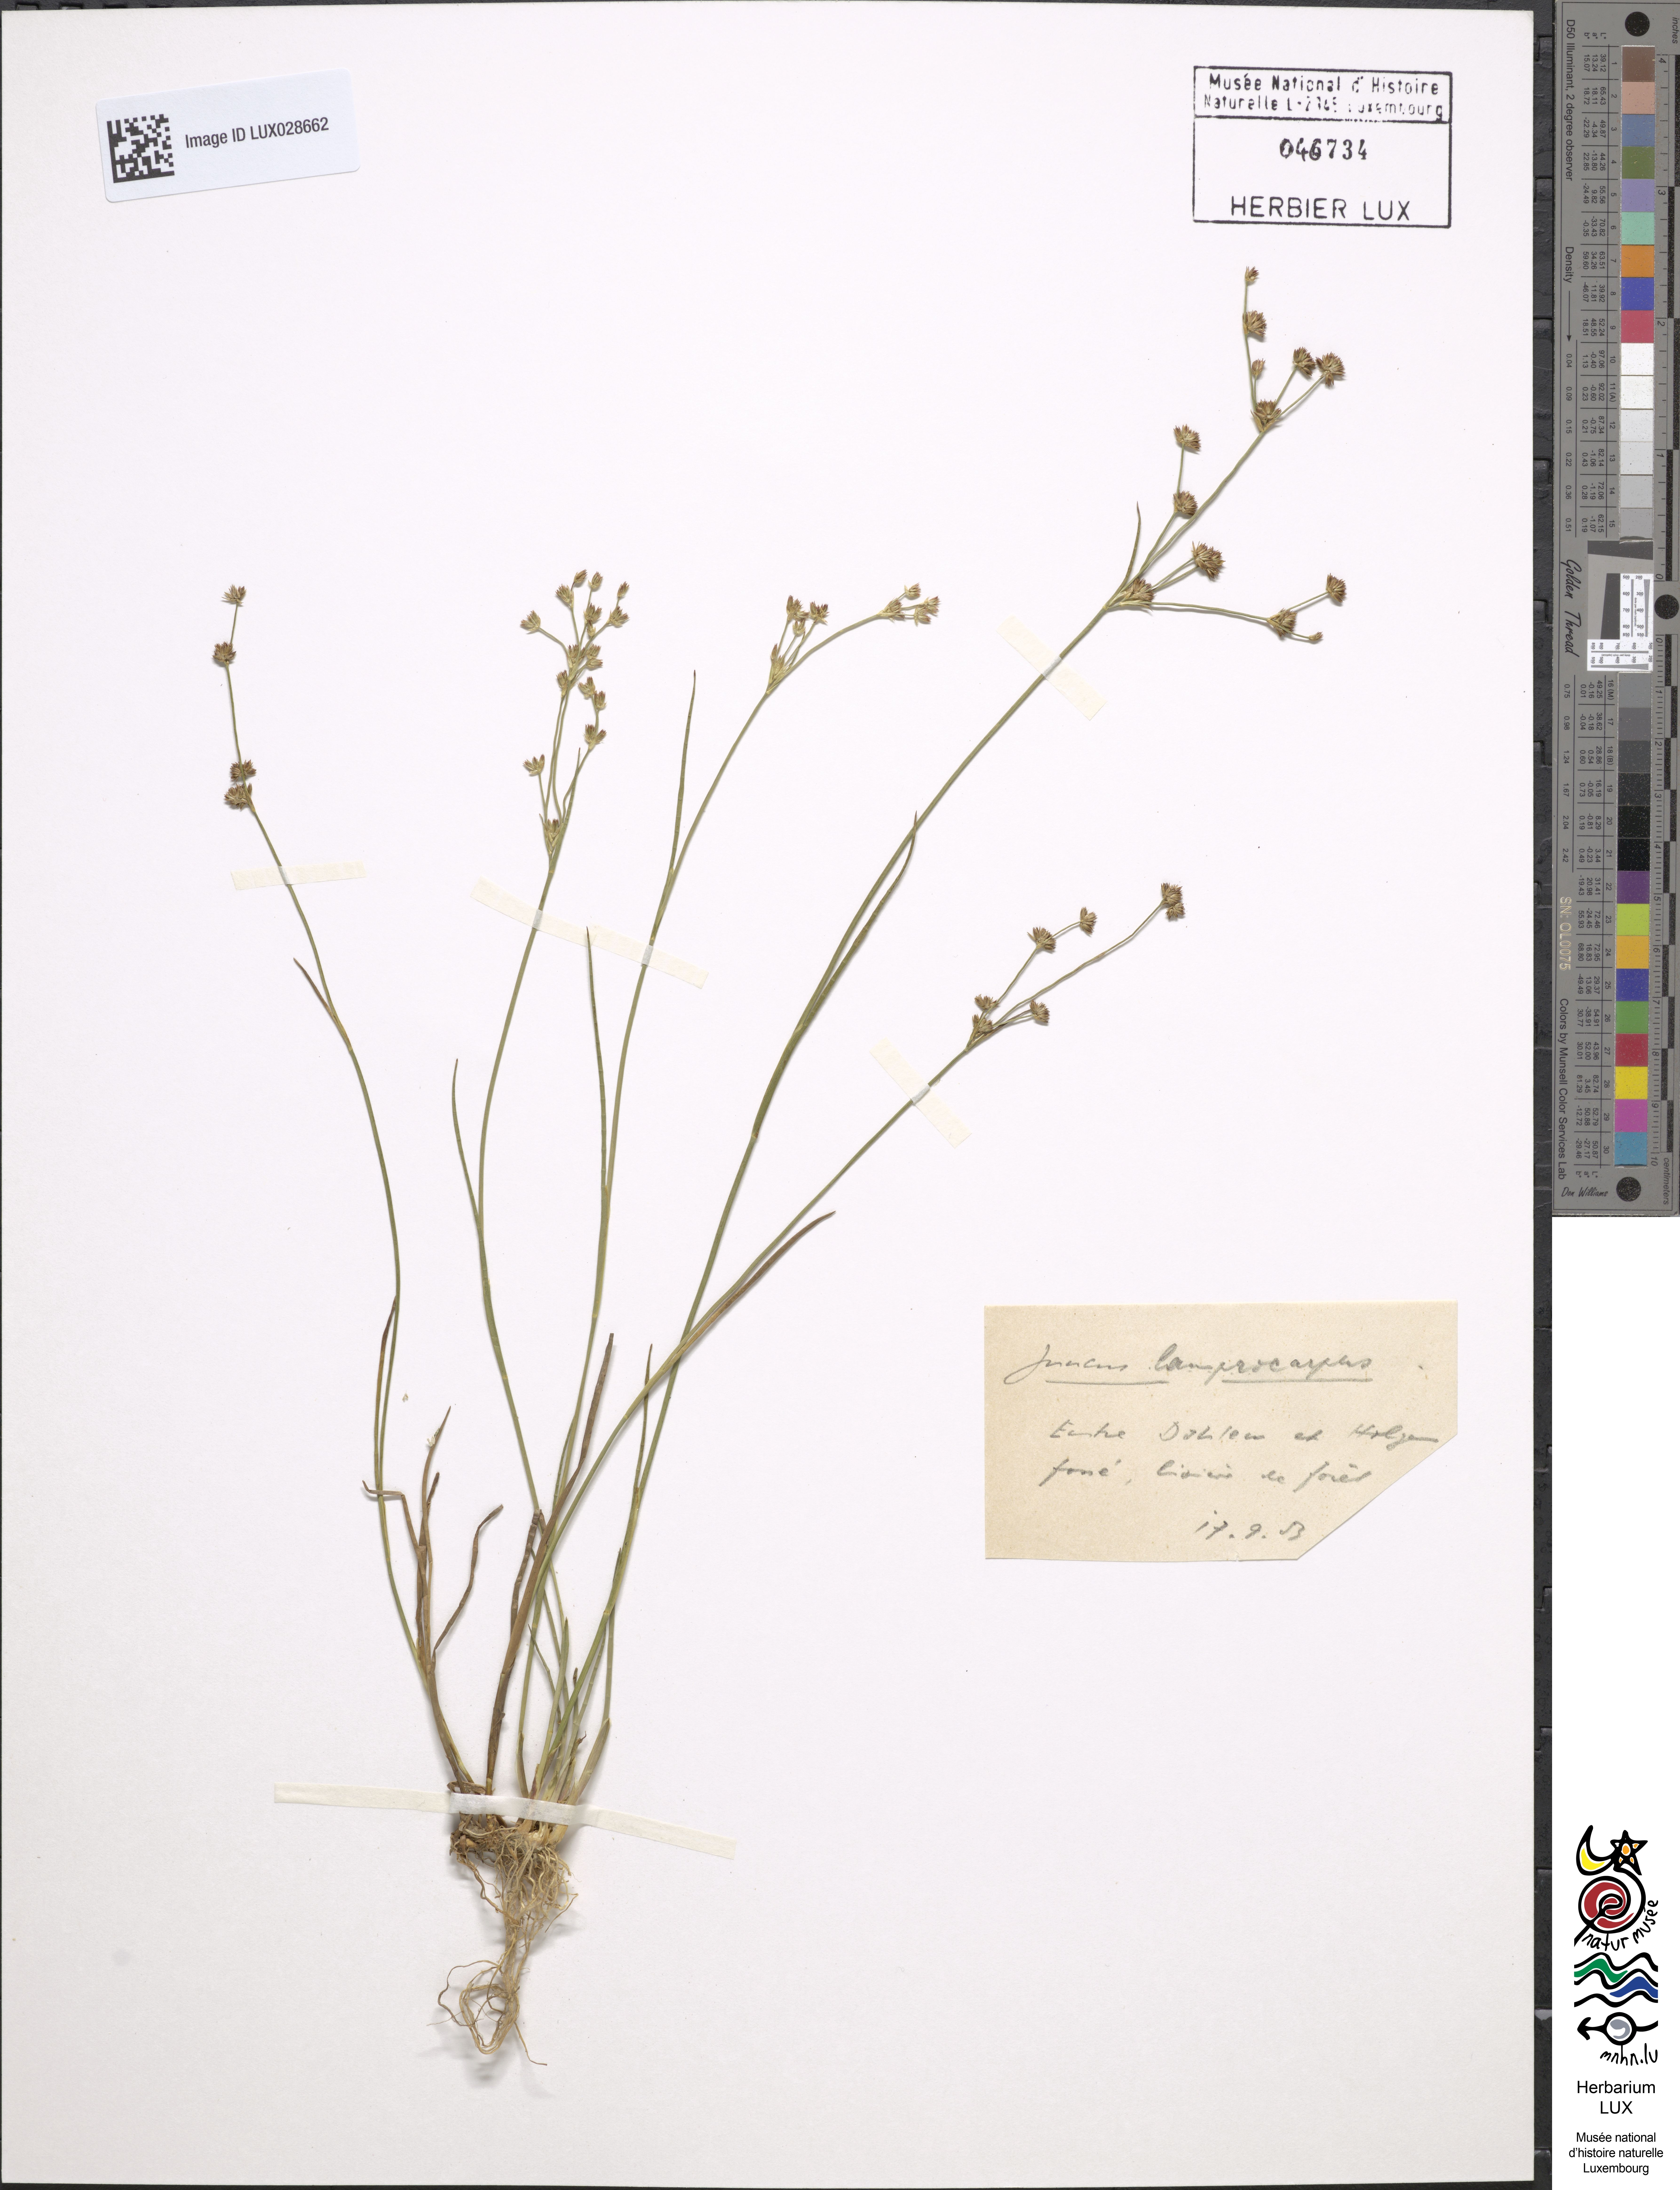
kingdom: Plantae
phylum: Tracheophyta
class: Liliopsida
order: Poales
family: Juncaceae
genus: Juncus
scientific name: Juncus articulatus
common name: Jointed rush
